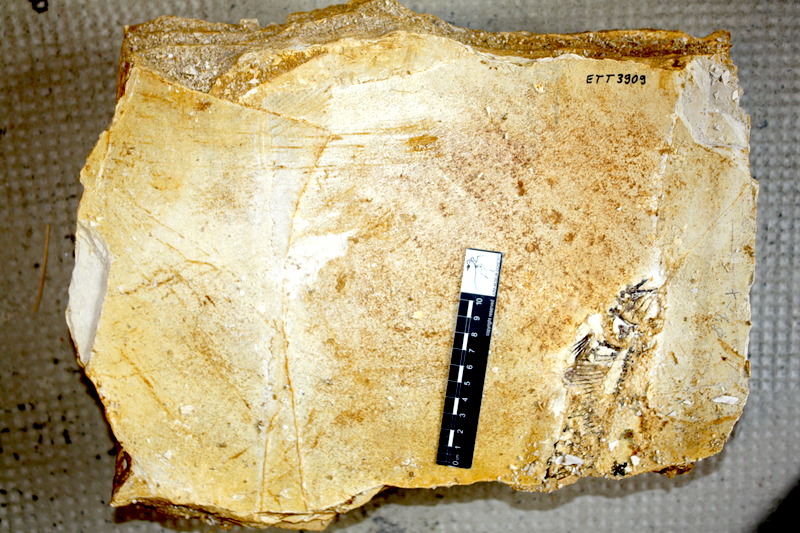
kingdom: Animalia
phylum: Chordata
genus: Thrissops
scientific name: Thrissops formosus
